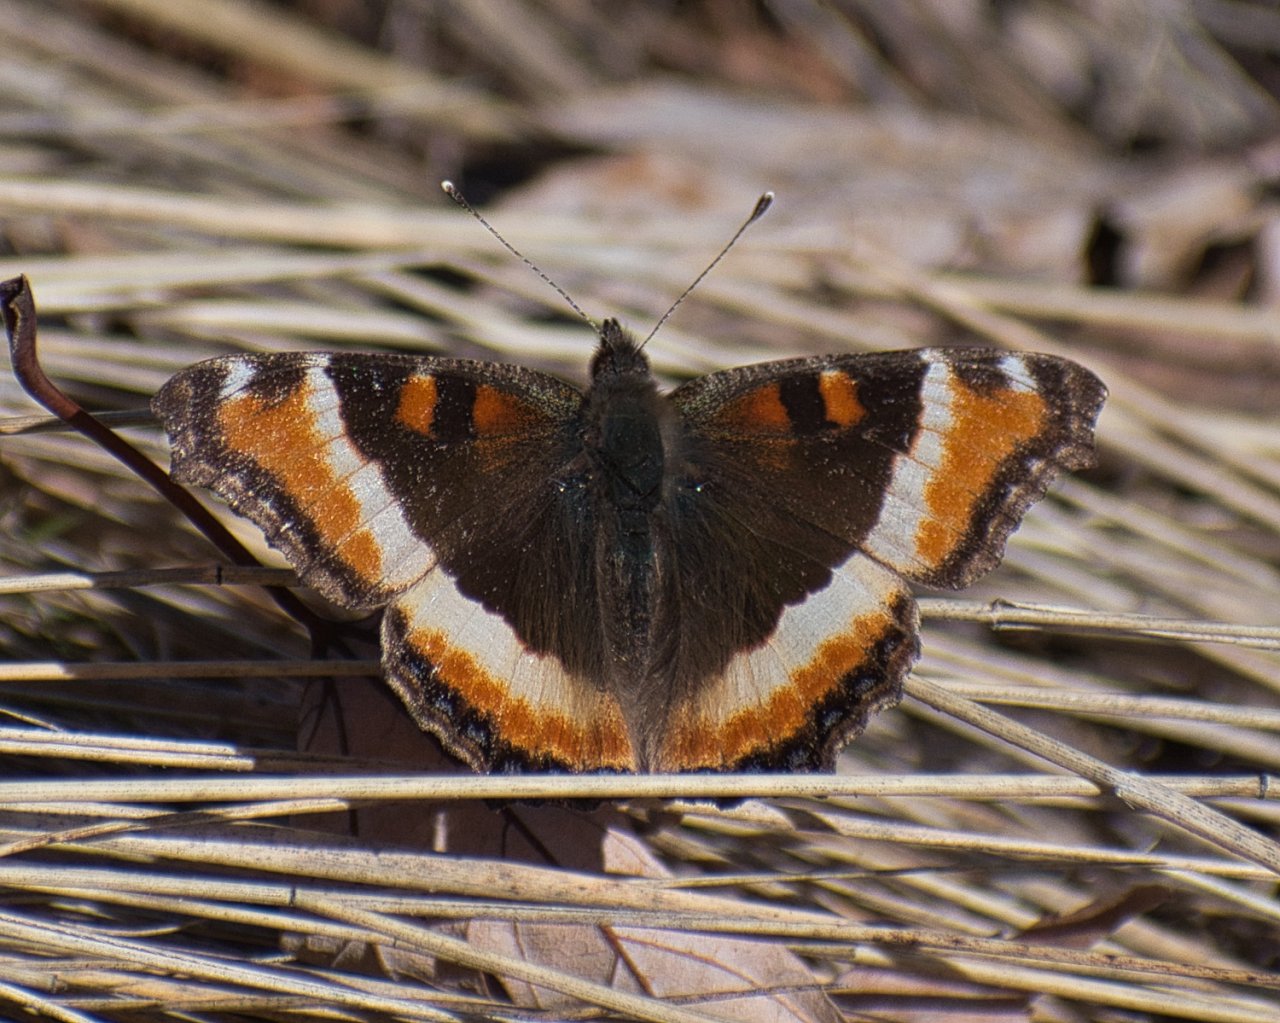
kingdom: Animalia
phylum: Arthropoda
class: Insecta
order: Lepidoptera
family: Nymphalidae
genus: Aglais
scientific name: Aglais milberti
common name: Milbert's Tortoiseshell
